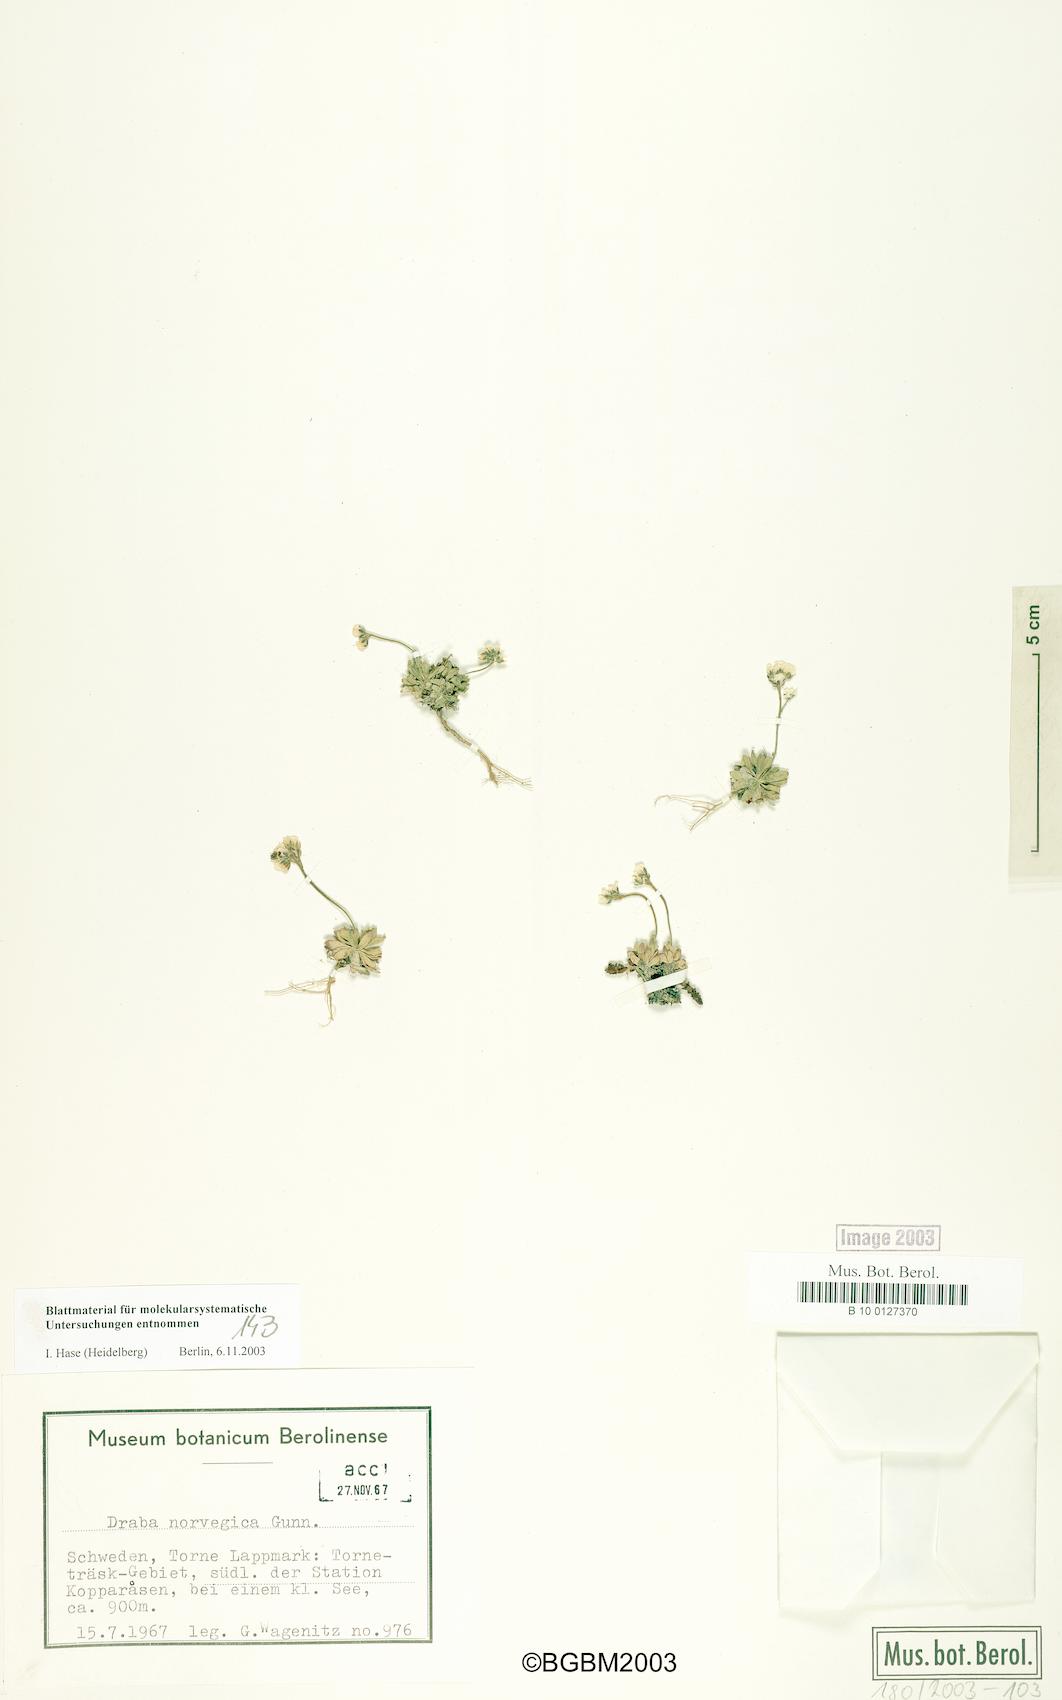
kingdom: Plantae
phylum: Tracheophyta
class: Magnoliopsida
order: Brassicales
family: Brassicaceae
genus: Draba
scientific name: Draba norvegica
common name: Rock whitlowgrass
